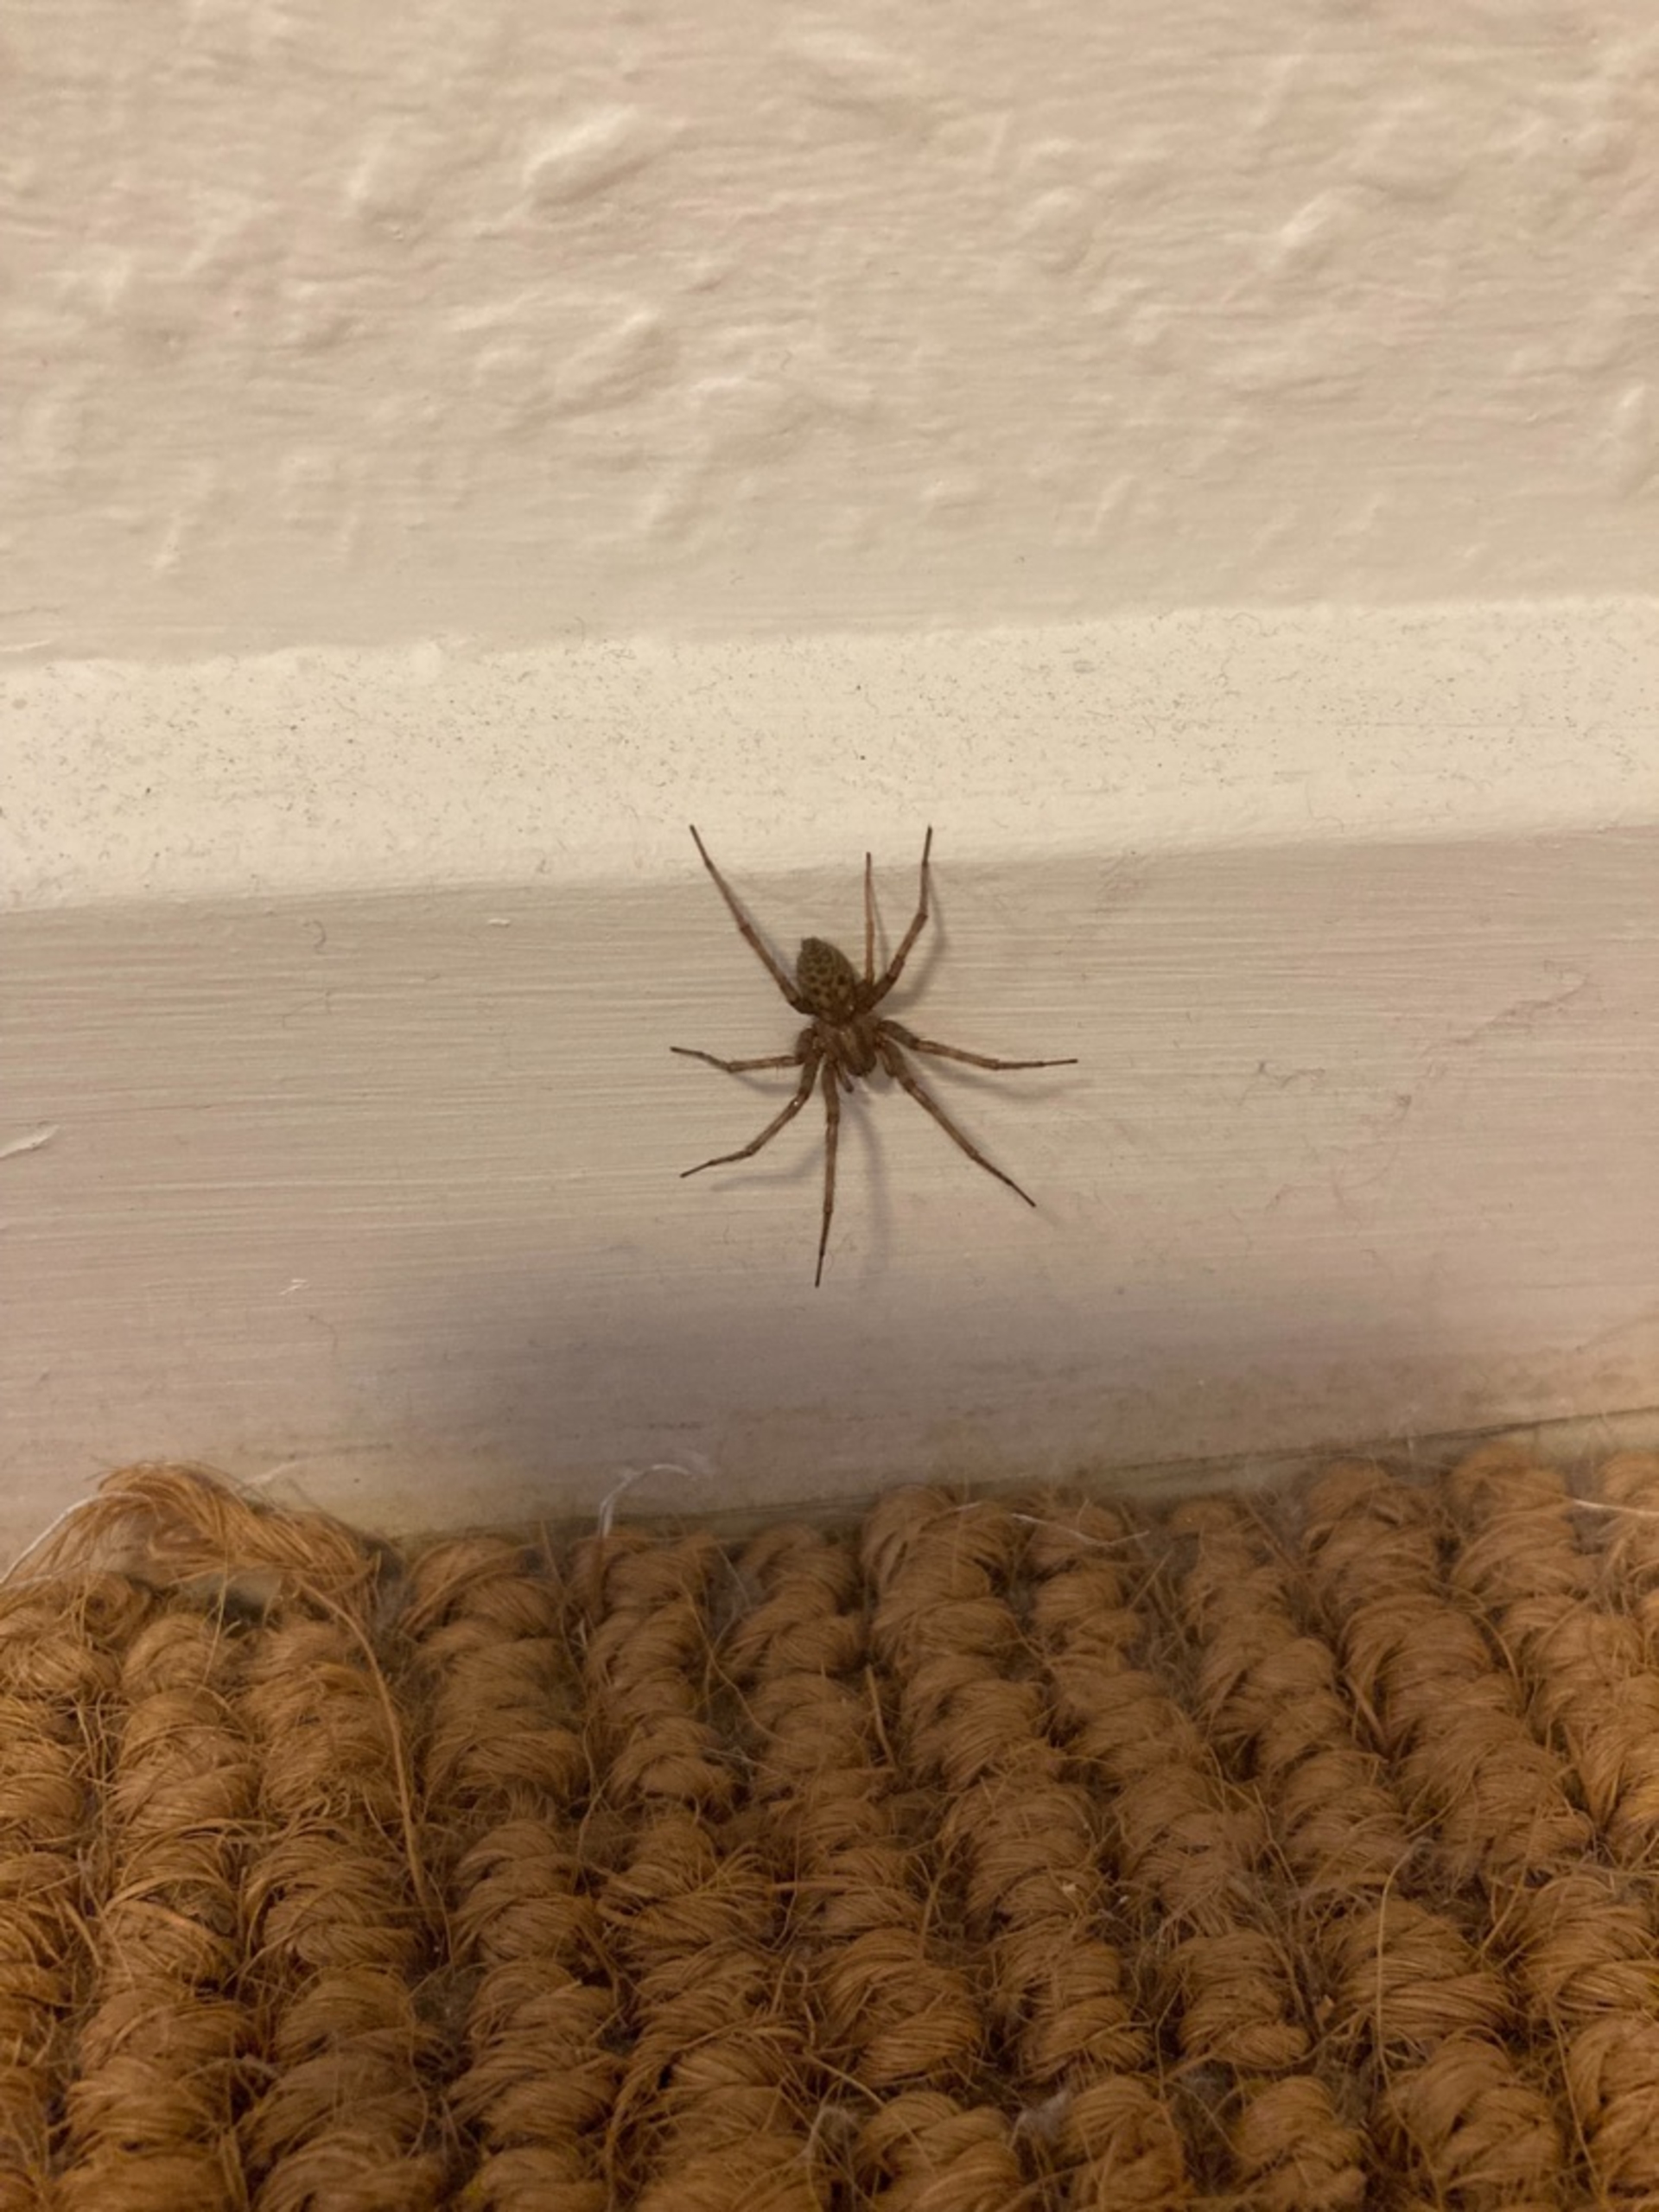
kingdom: Animalia
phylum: Arthropoda
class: Arachnida
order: Araneae
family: Agelenidae
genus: Tegenaria
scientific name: Tegenaria domestica
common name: Lille husedderkop
